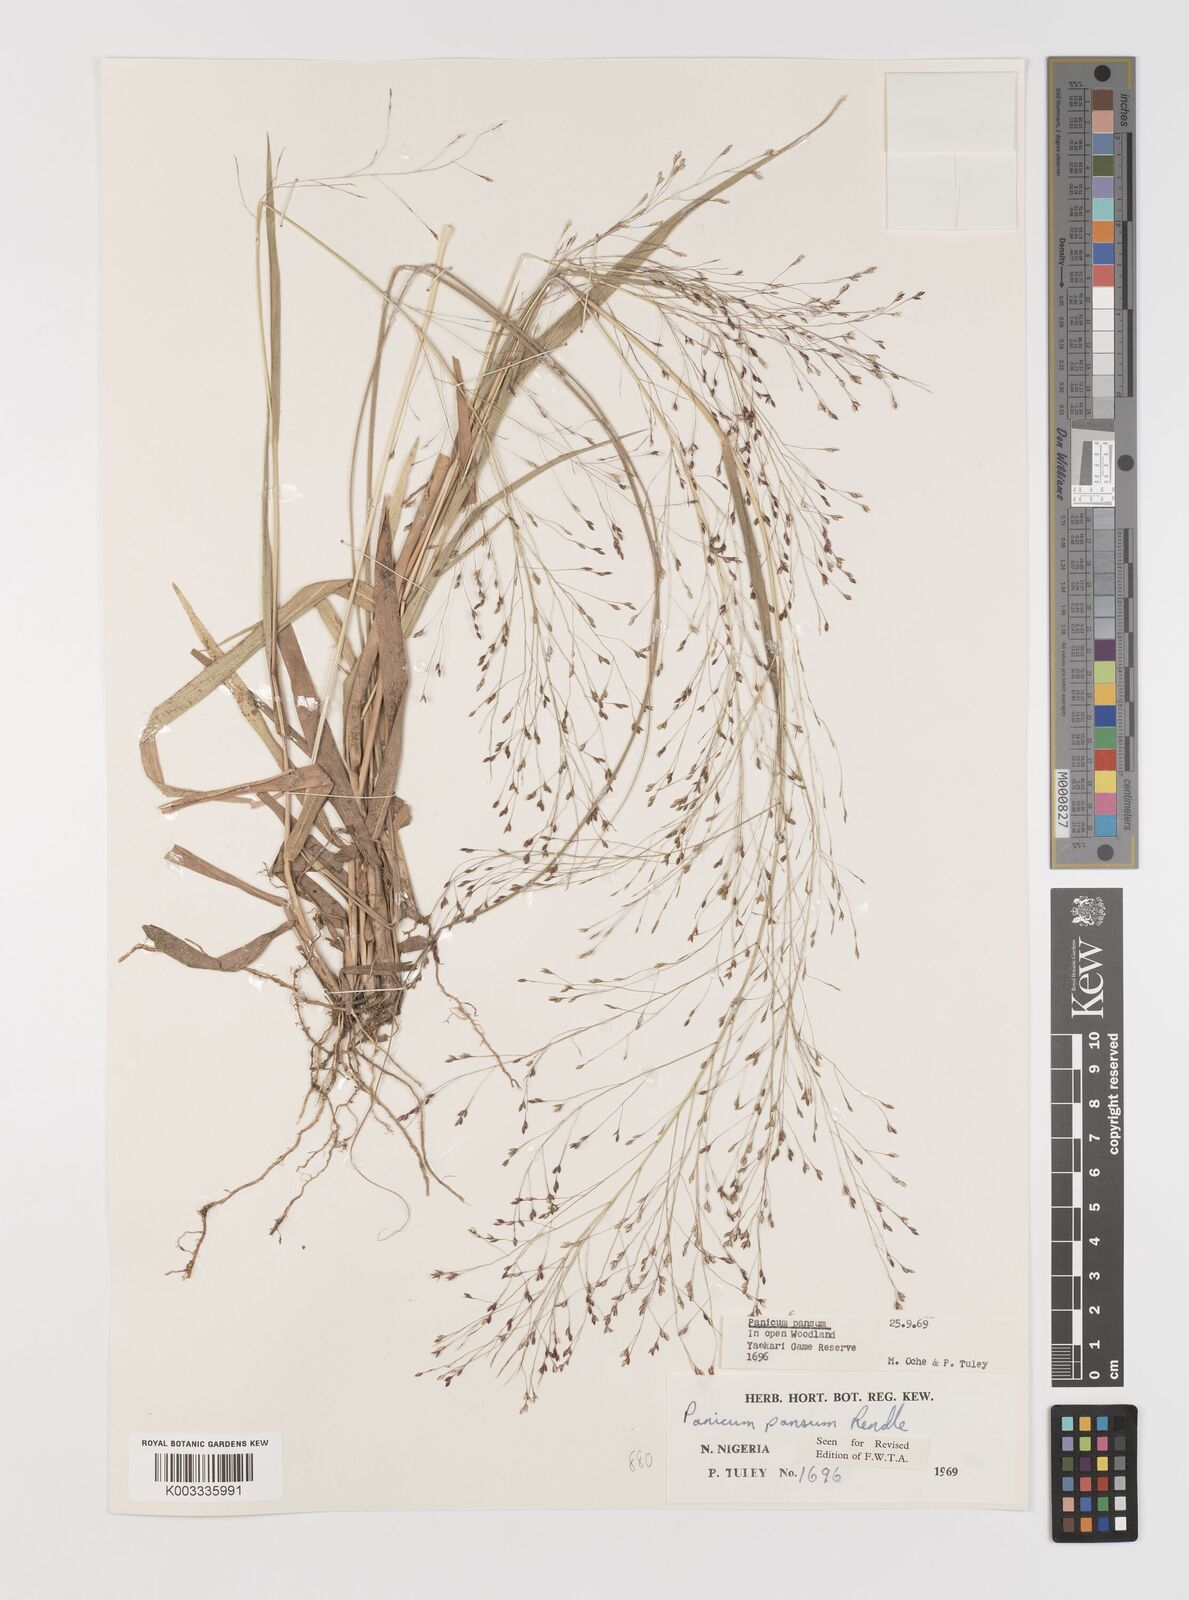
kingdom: Plantae
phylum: Tracheophyta
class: Liliopsida
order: Poales
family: Poaceae
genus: Panicum
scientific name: Panicum pansum
